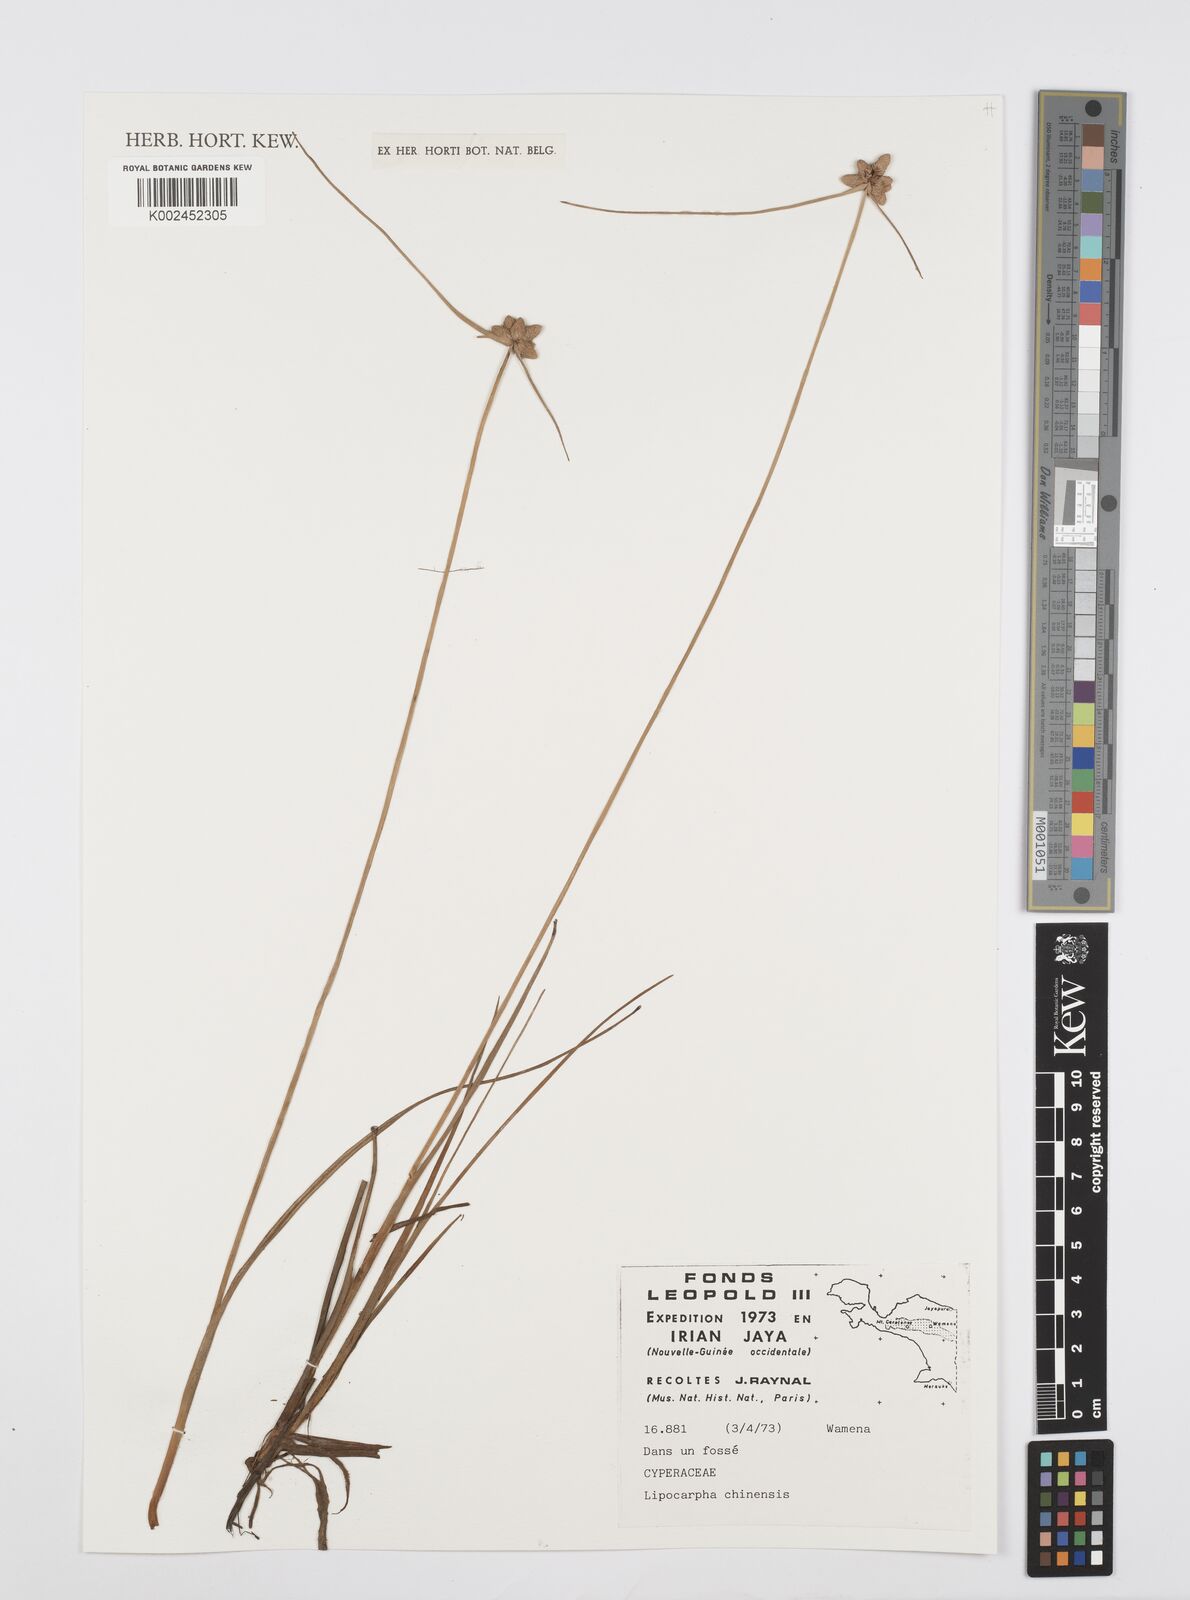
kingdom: Plantae
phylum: Tracheophyta
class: Liliopsida
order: Poales
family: Cyperaceae
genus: Cyperus
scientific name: Cyperus
